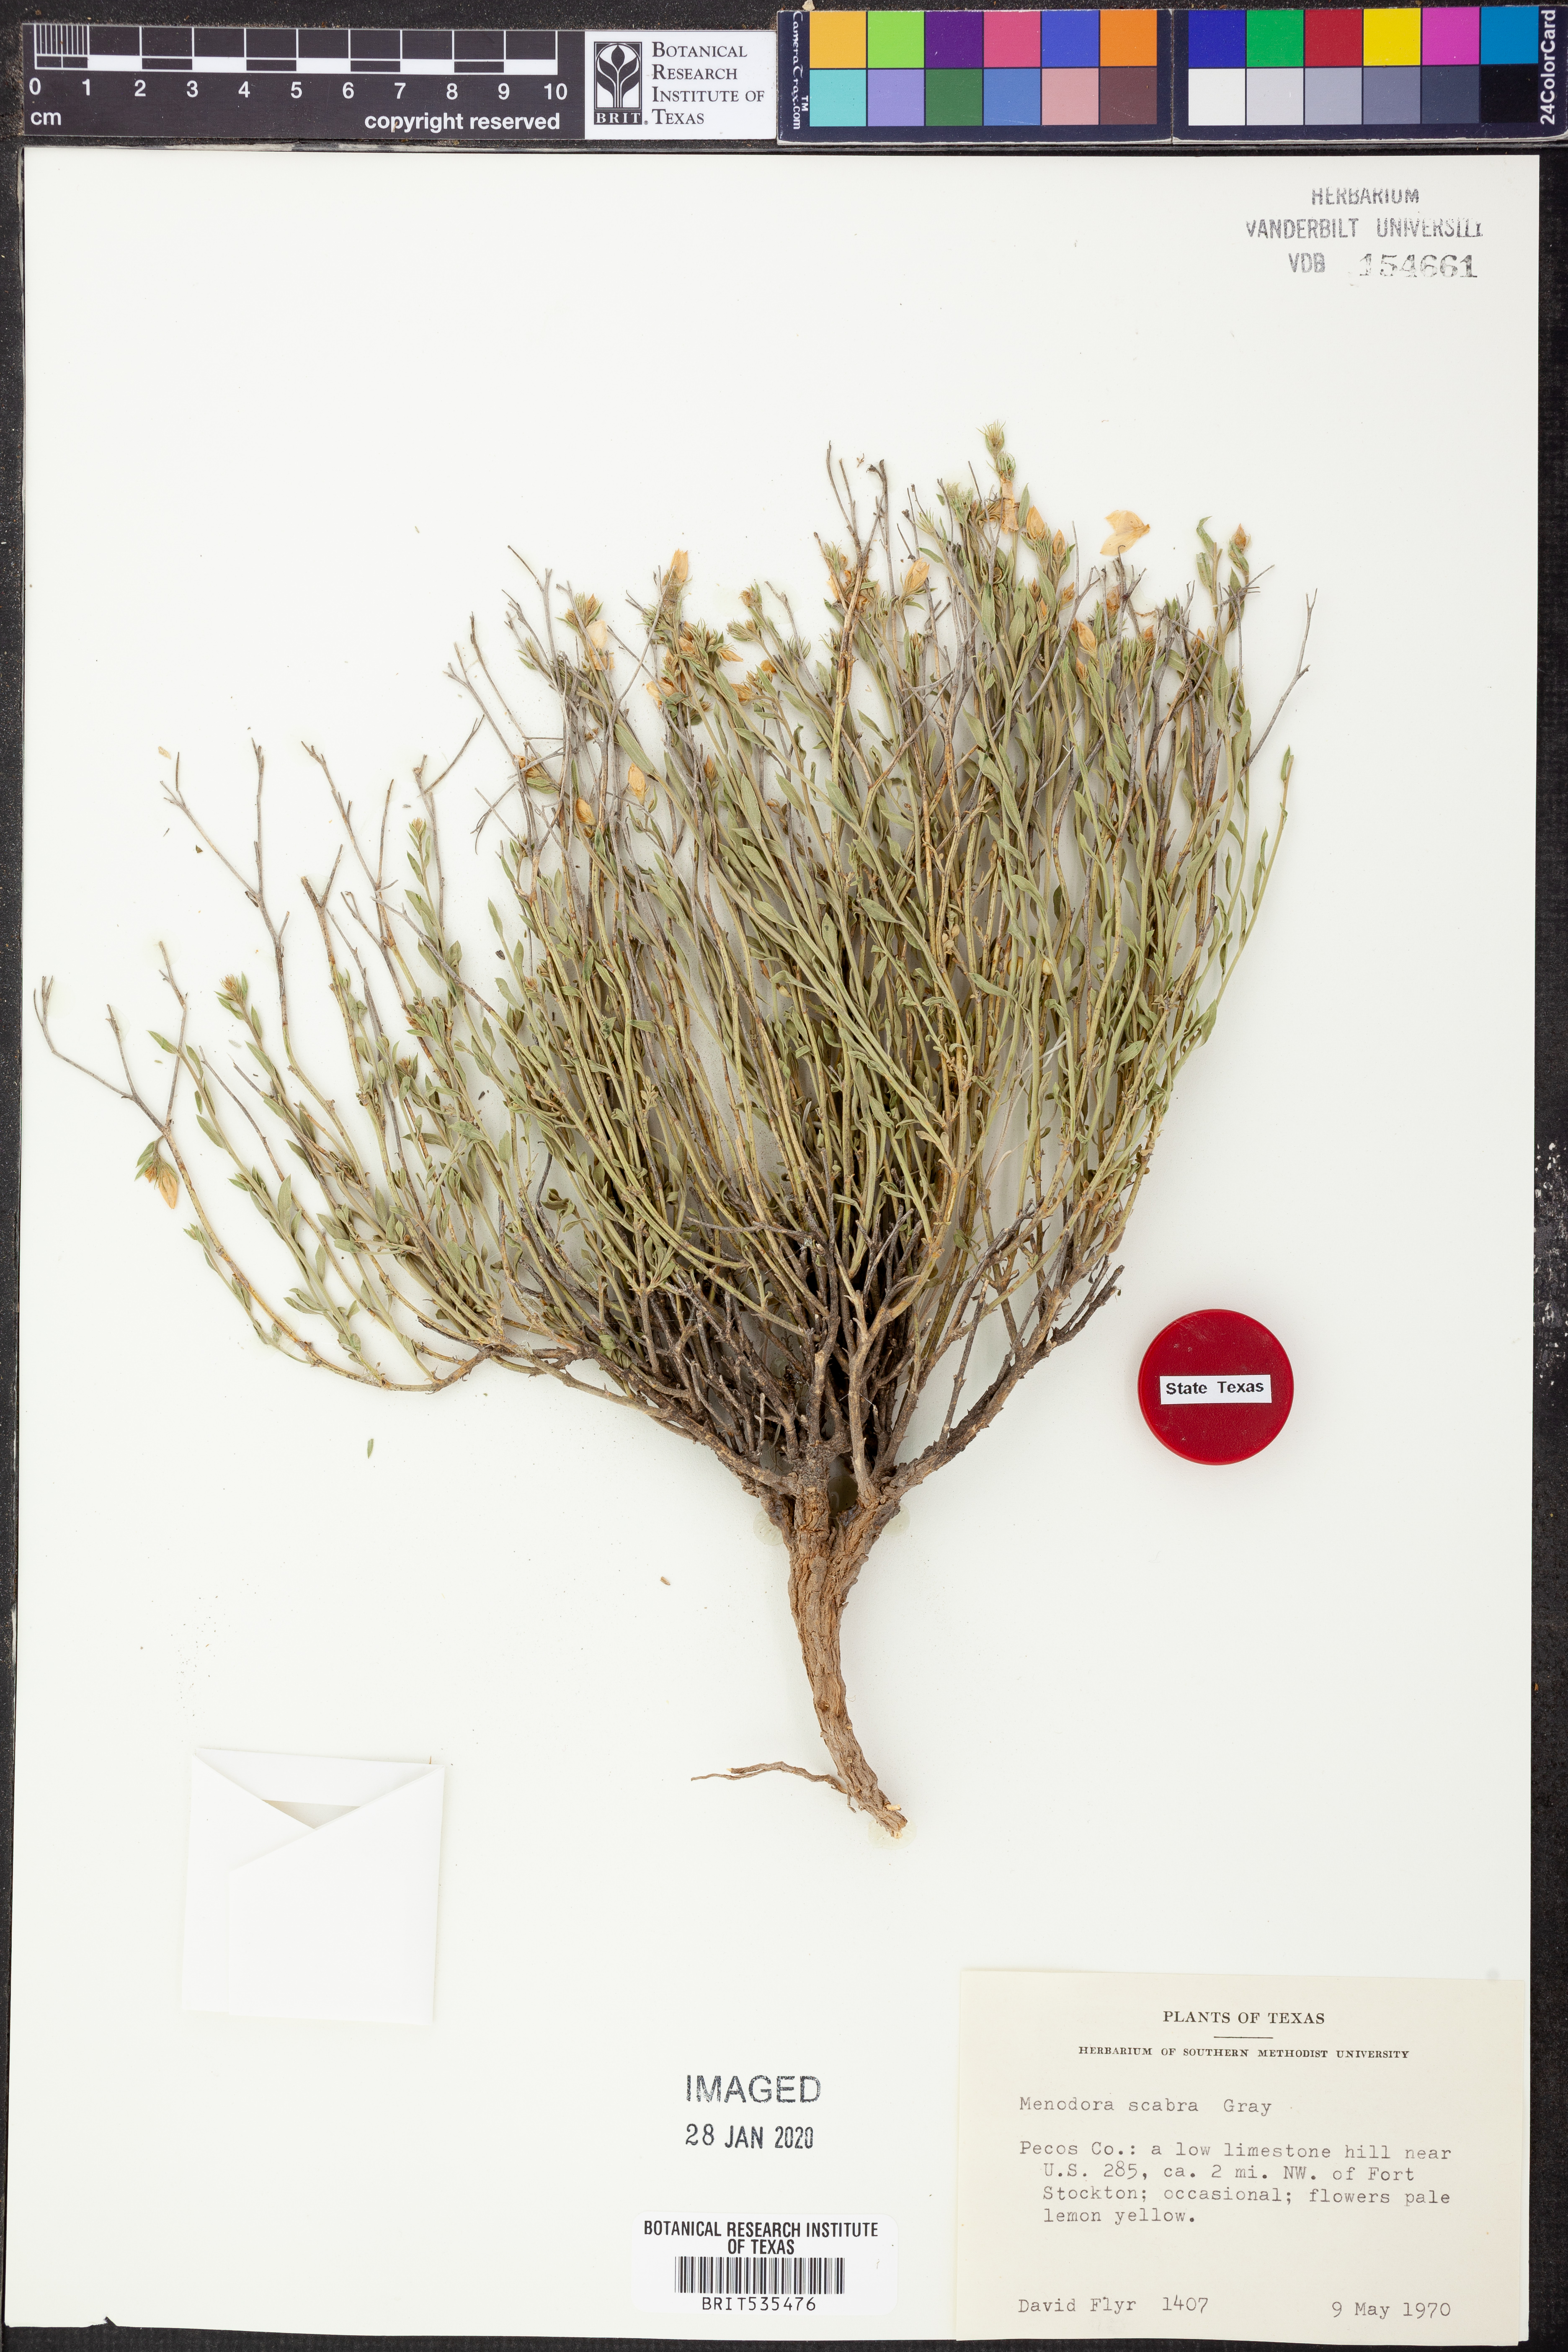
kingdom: Plantae
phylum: Tracheophyta
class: Magnoliopsida
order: Lamiales
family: Oleaceae
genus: Menodora
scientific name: Menodora scabra
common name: Rough menodora
